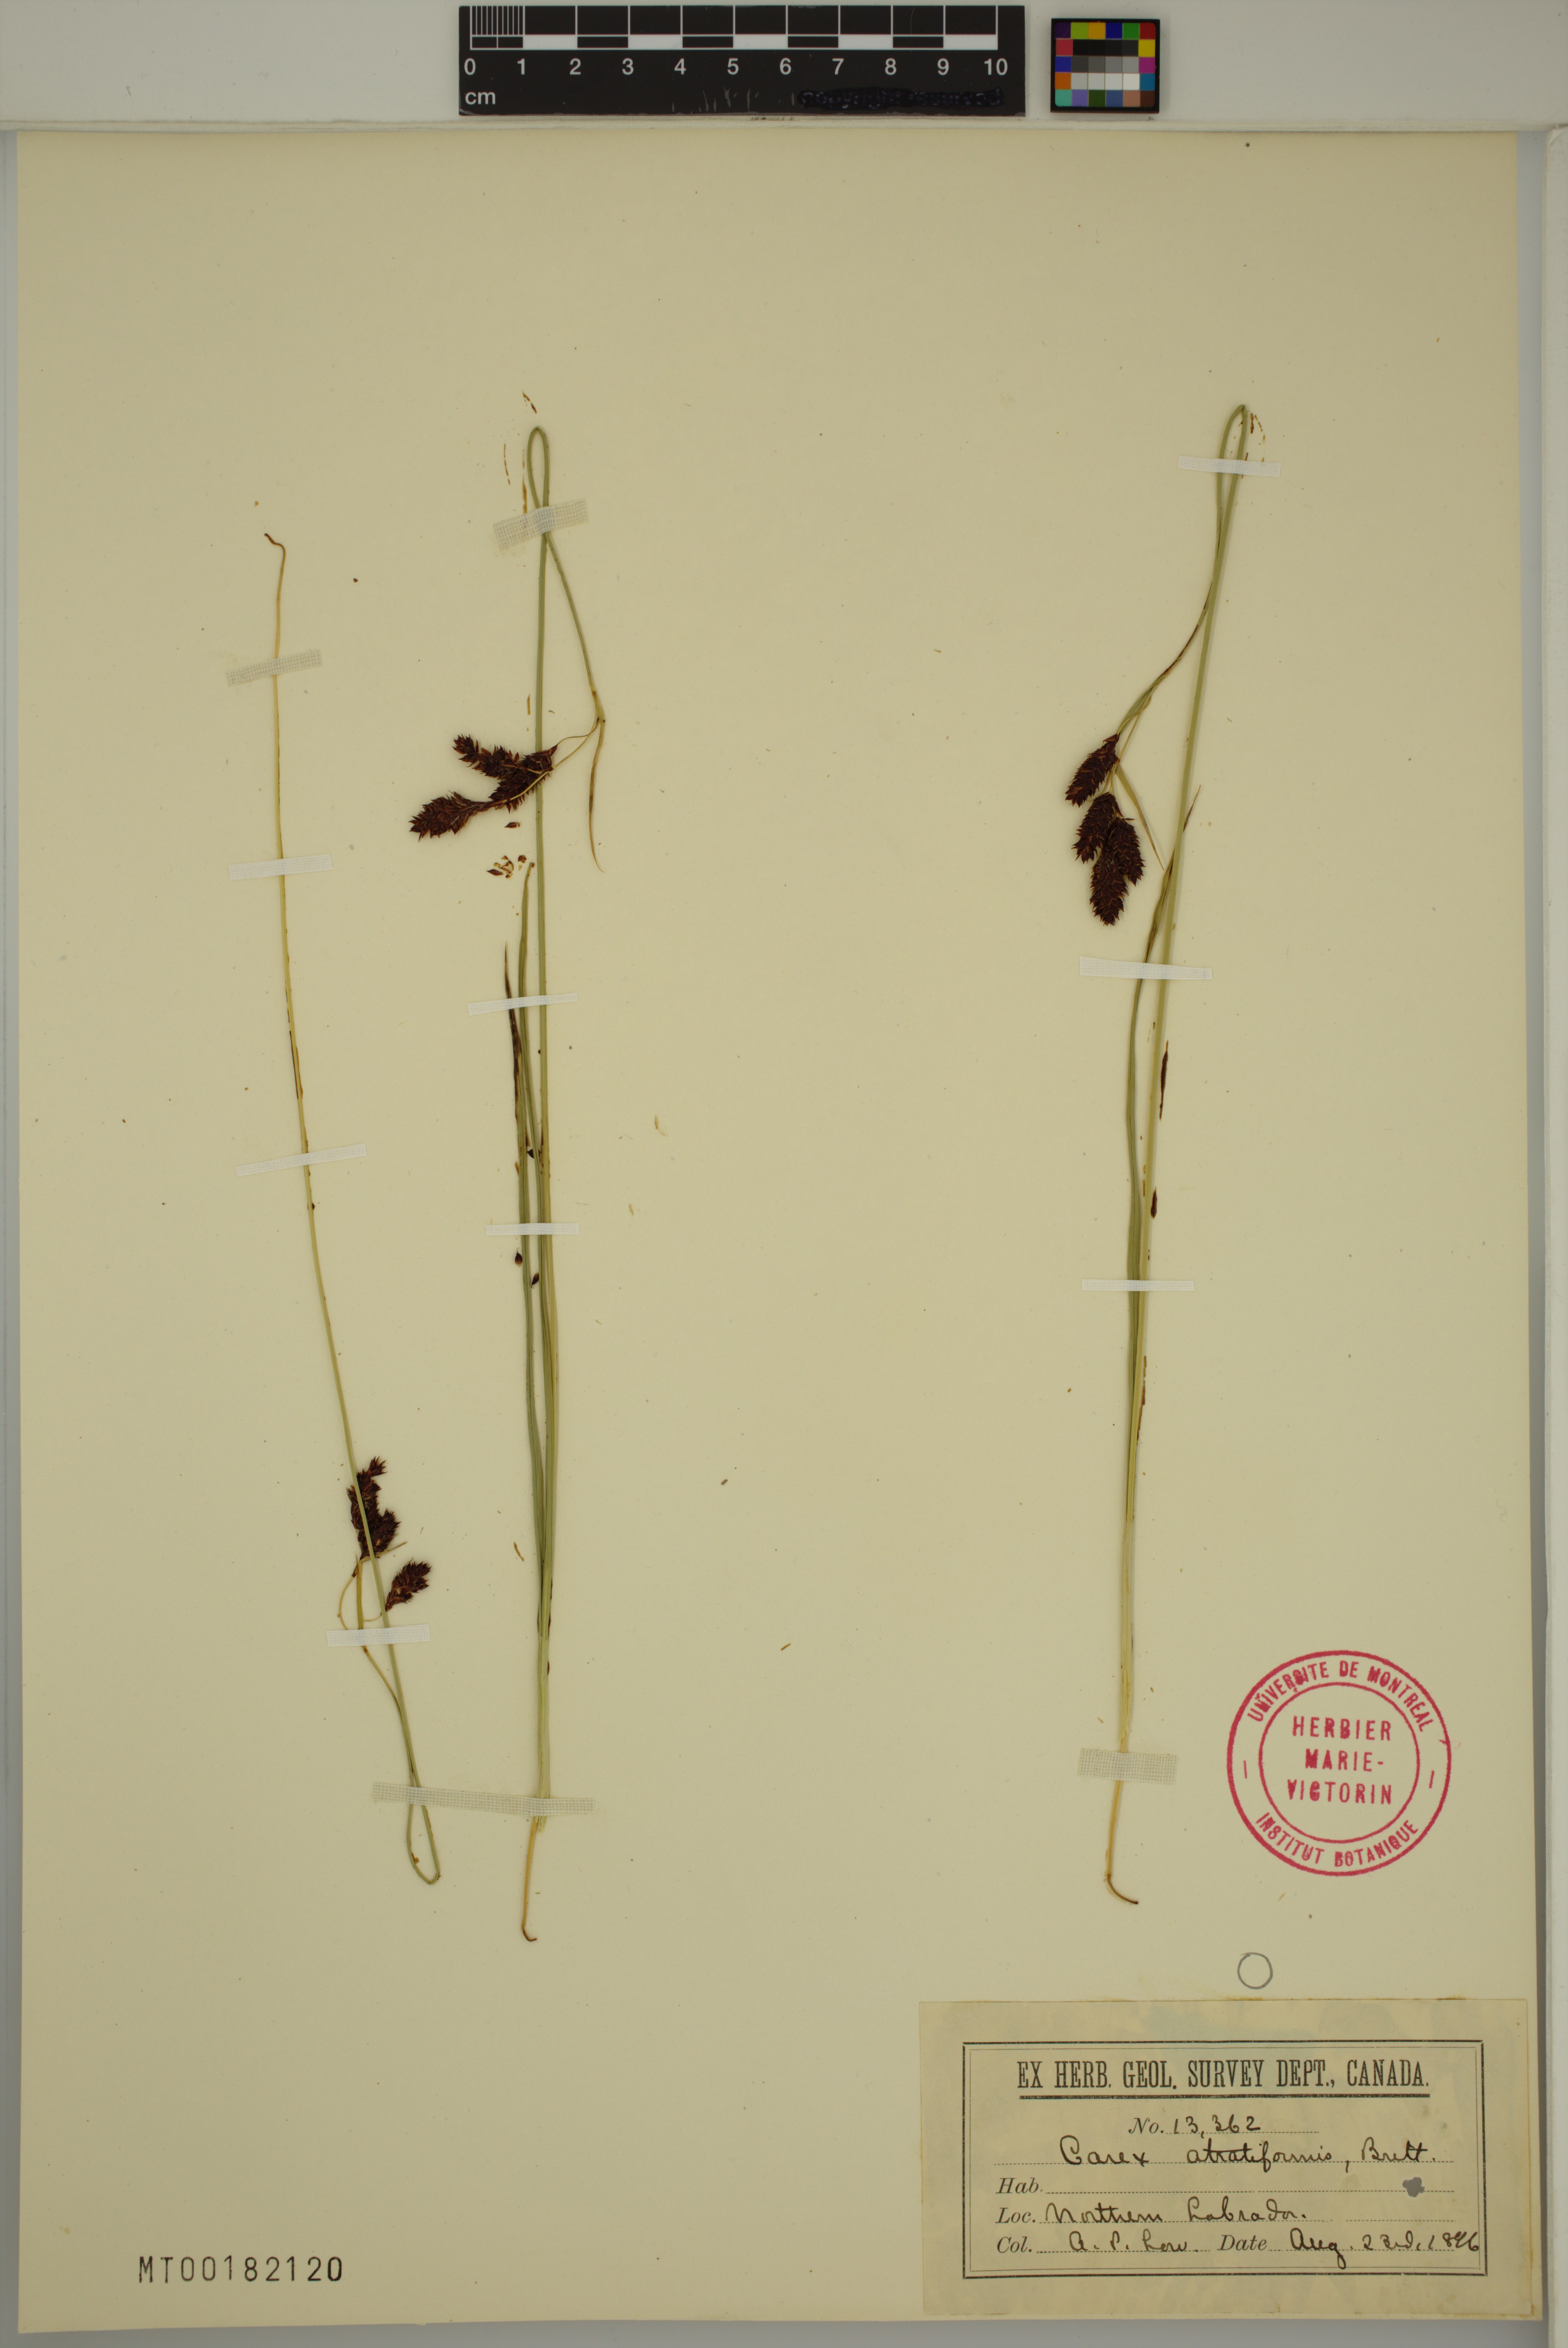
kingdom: Plantae
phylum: Tracheophyta
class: Liliopsida
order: Poales
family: Cyperaceae
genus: Carex
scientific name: Carex atratiformis
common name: Black sedge
